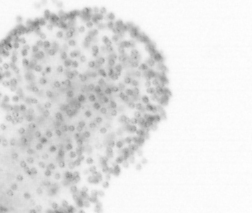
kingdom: Chromista
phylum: Ochrophyta
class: Bacillariophyceae
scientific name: Bacillariophyceae
